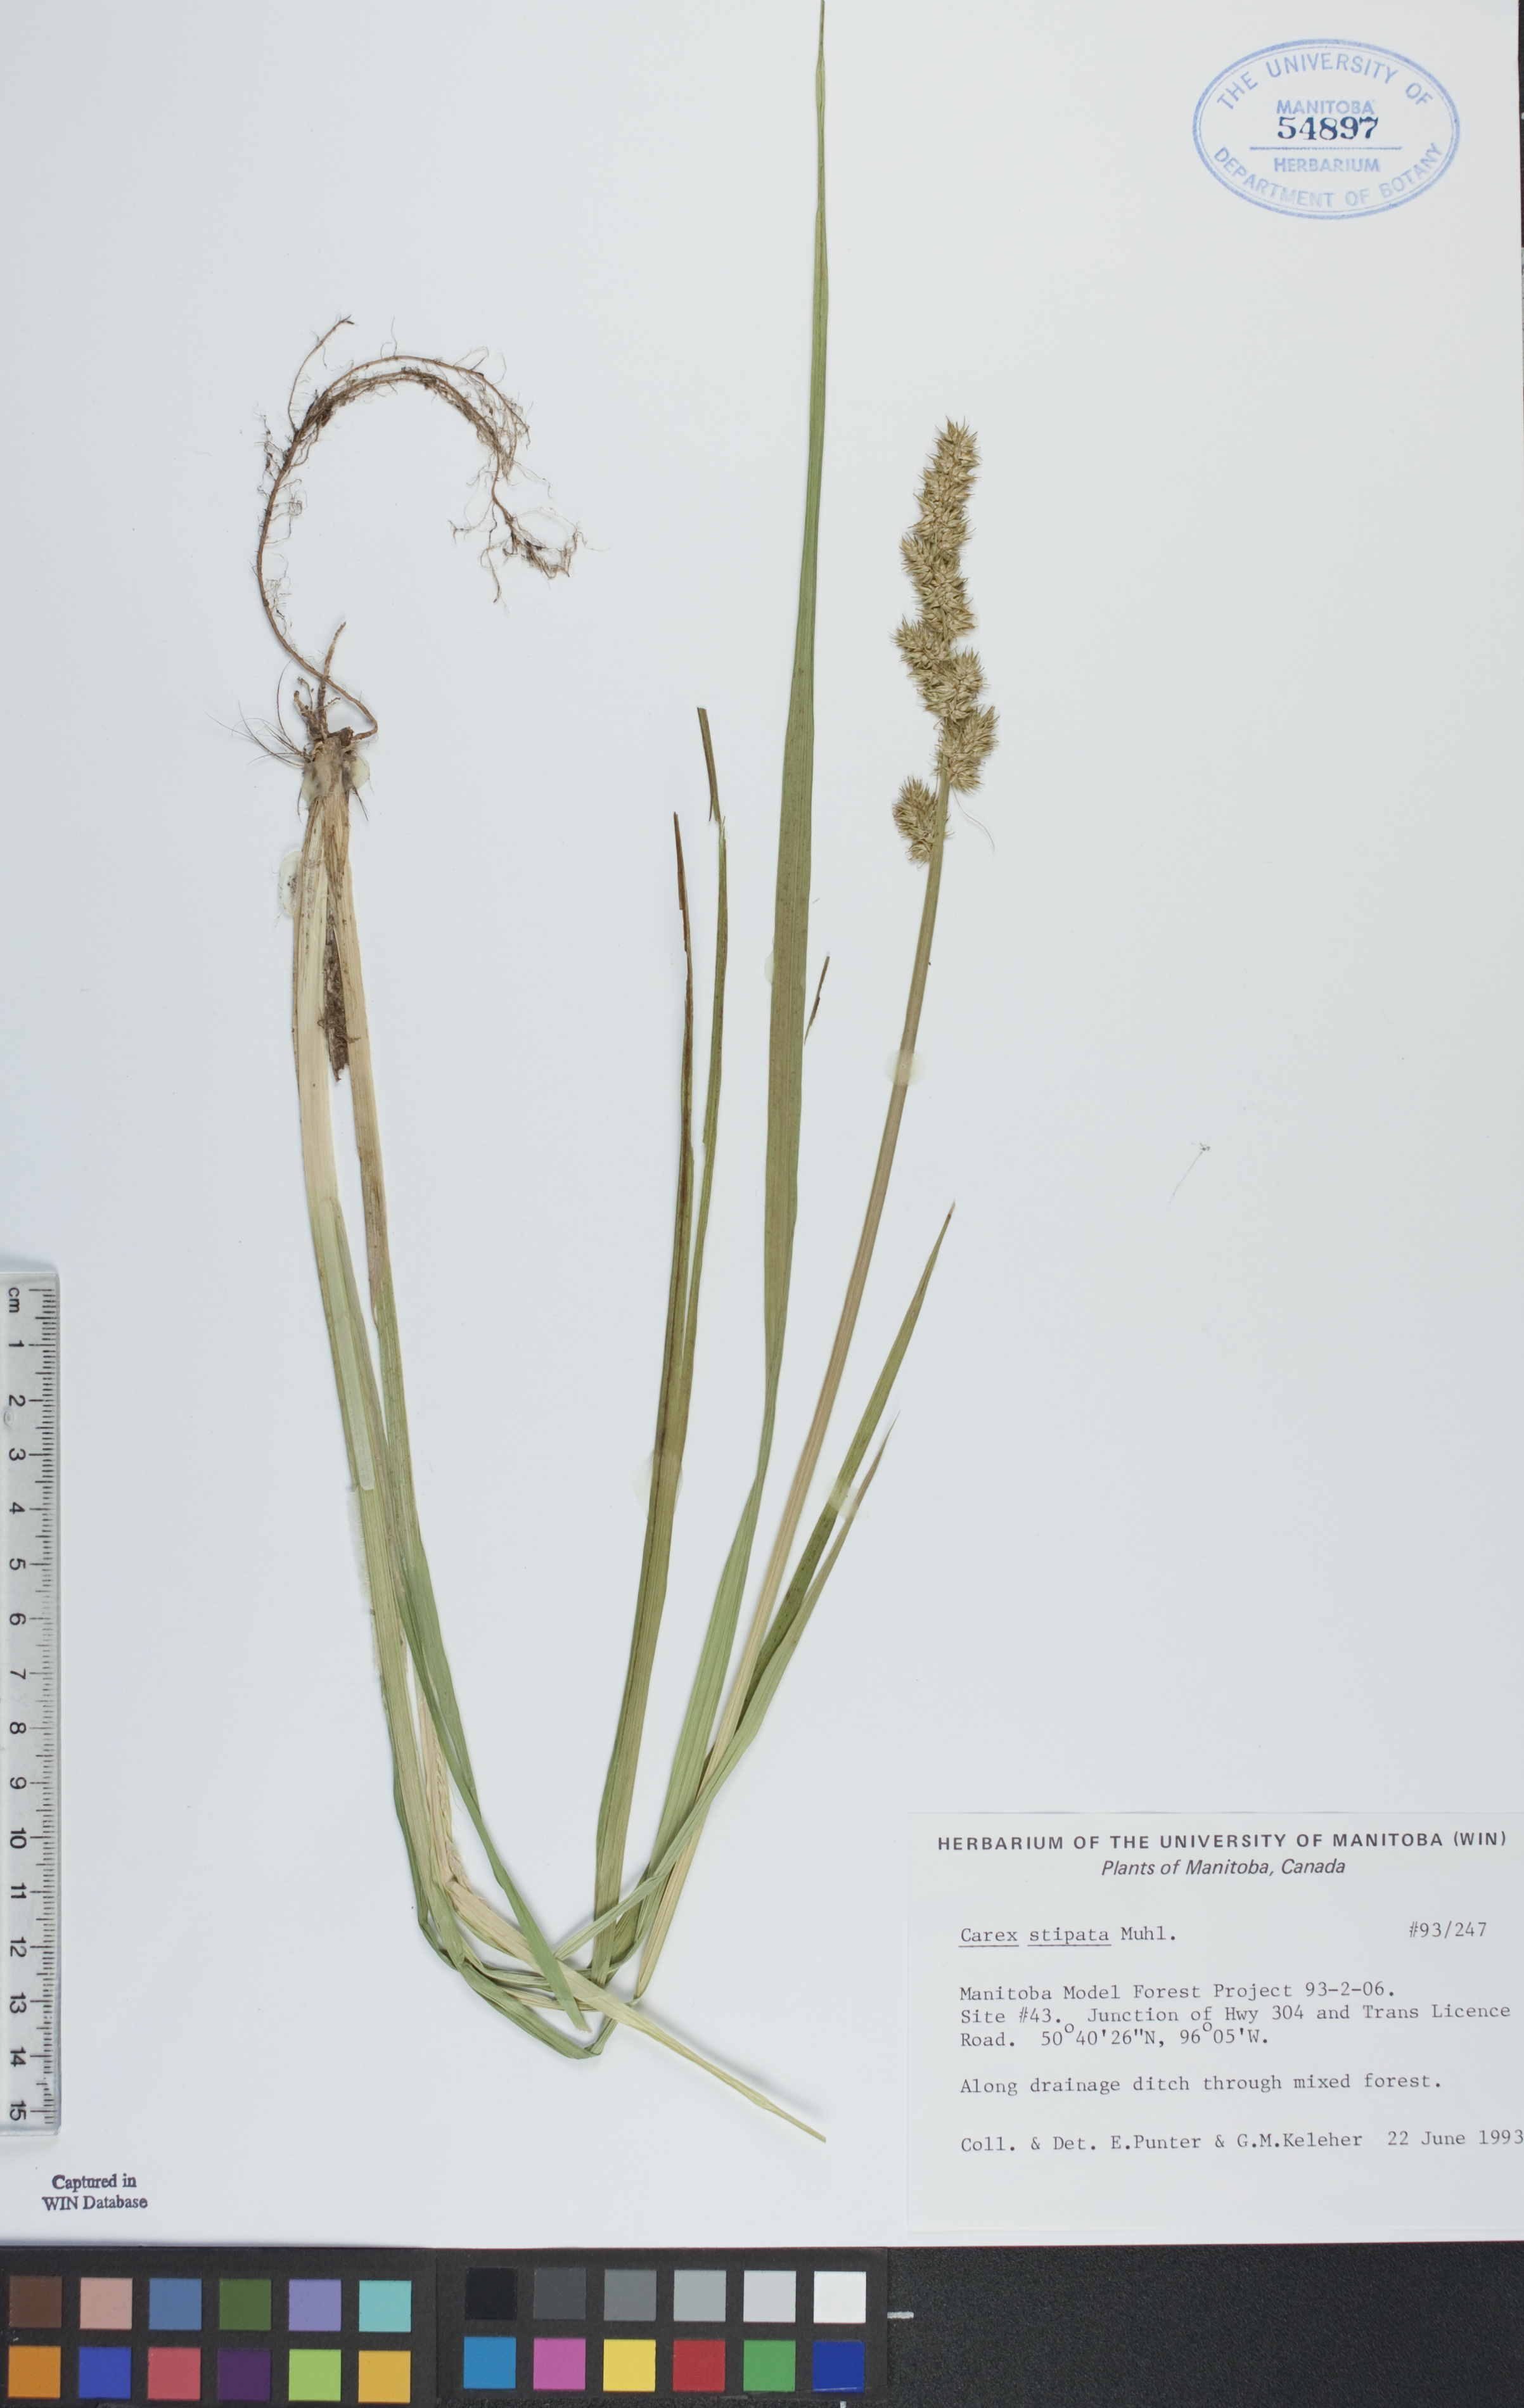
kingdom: Plantae
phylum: Tracheophyta
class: Liliopsida
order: Poales
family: Cyperaceae
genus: Carex
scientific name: Carex stipata
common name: Awl-fruited sedge
